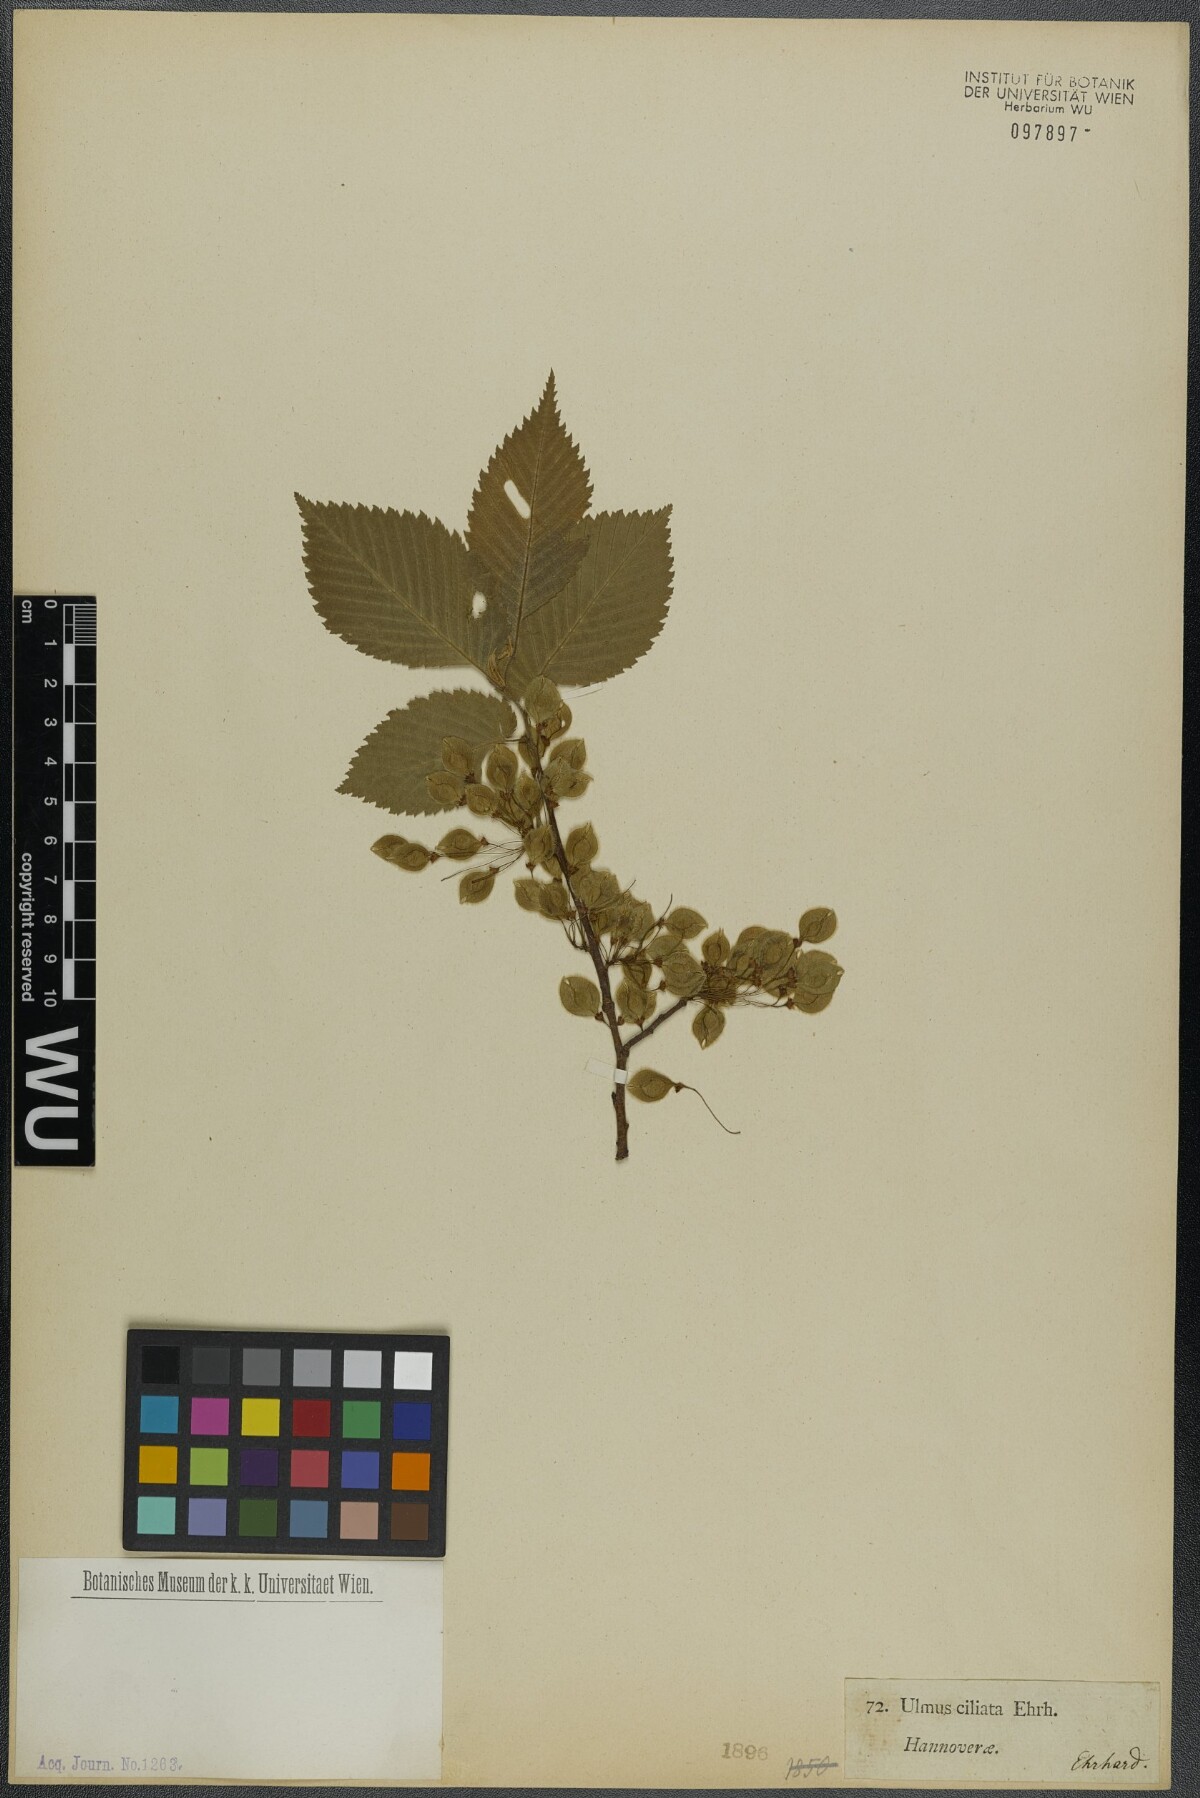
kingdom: Plantae
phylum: Tracheophyta
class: Magnoliopsida
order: Rosales
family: Ulmaceae
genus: Ulmus
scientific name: Ulmus laevis
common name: European white-elm
